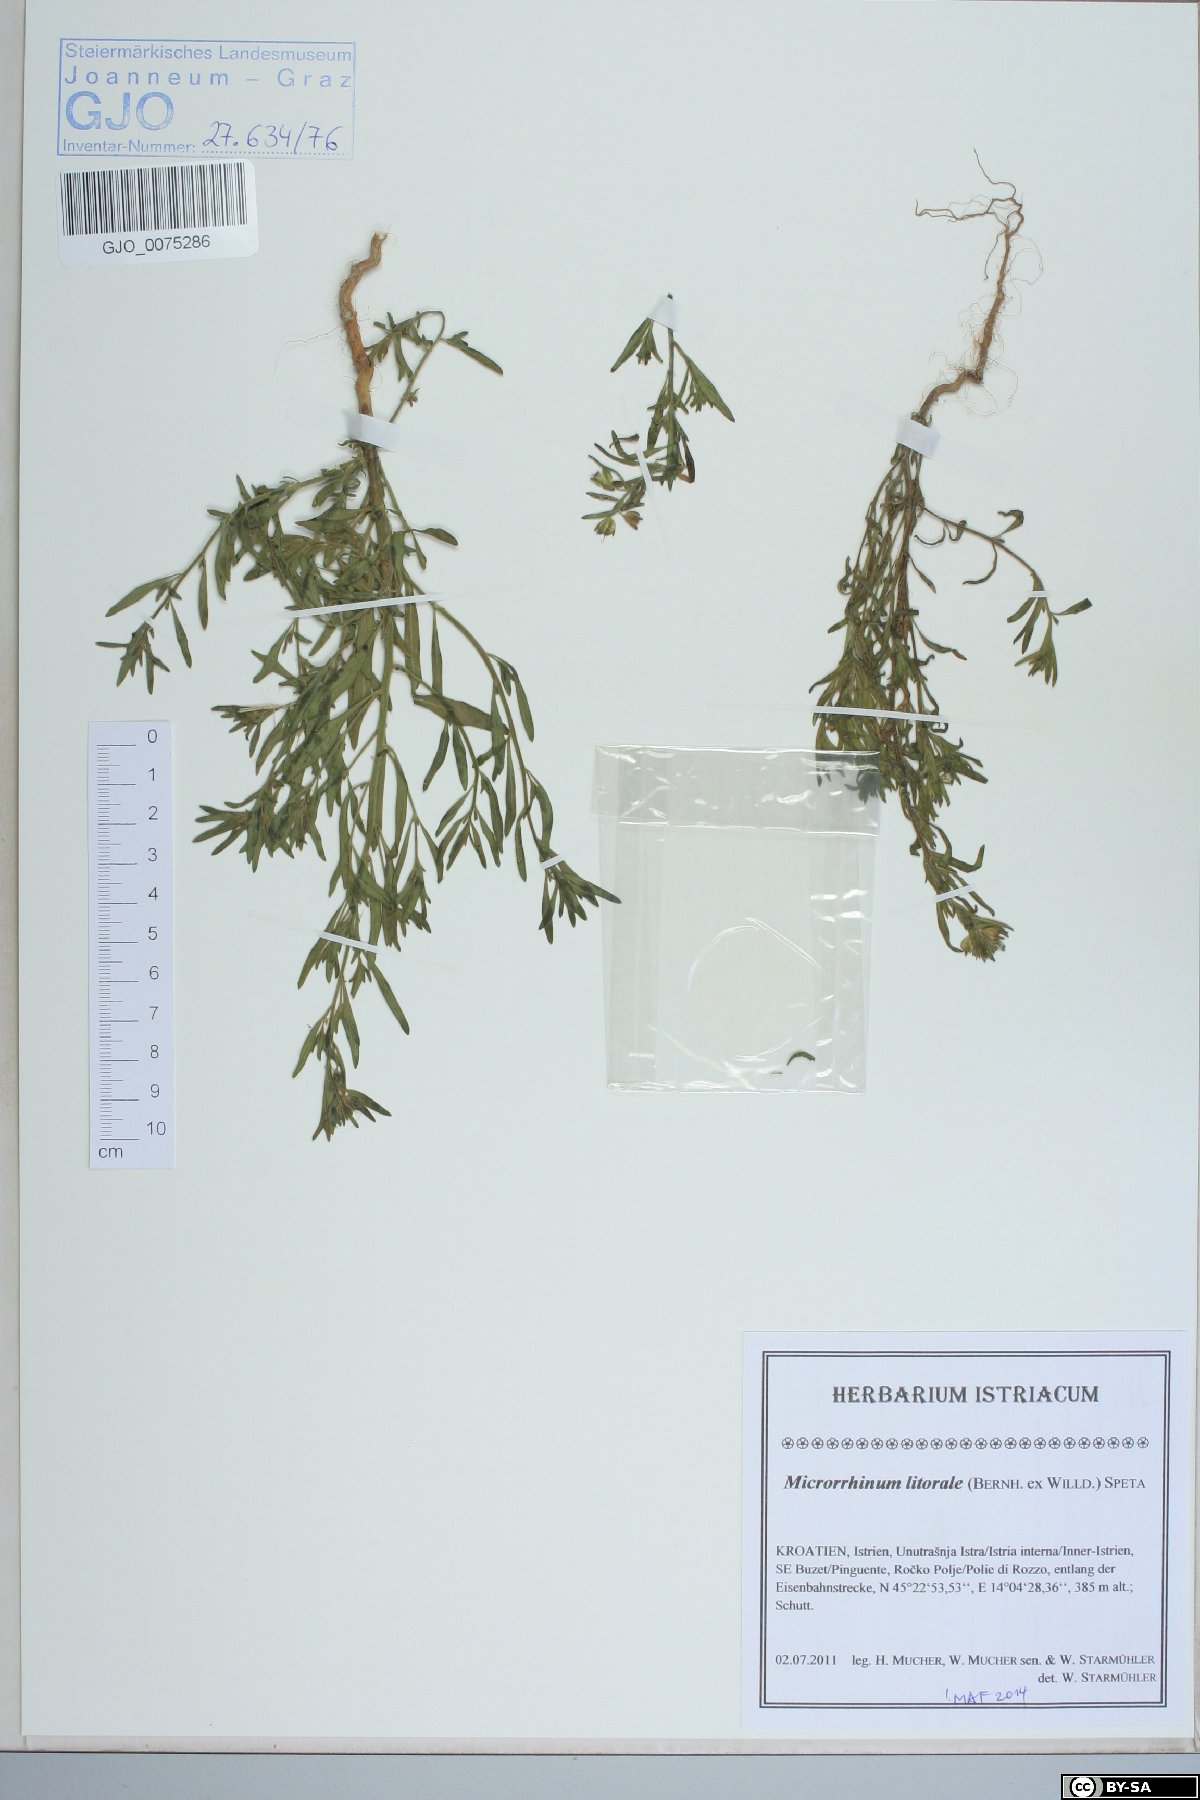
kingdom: Plantae
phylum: Tracheophyta
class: Magnoliopsida
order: Lamiales
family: Plantaginaceae
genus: Chaenorhinum
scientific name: Chaenorhinum litorale
